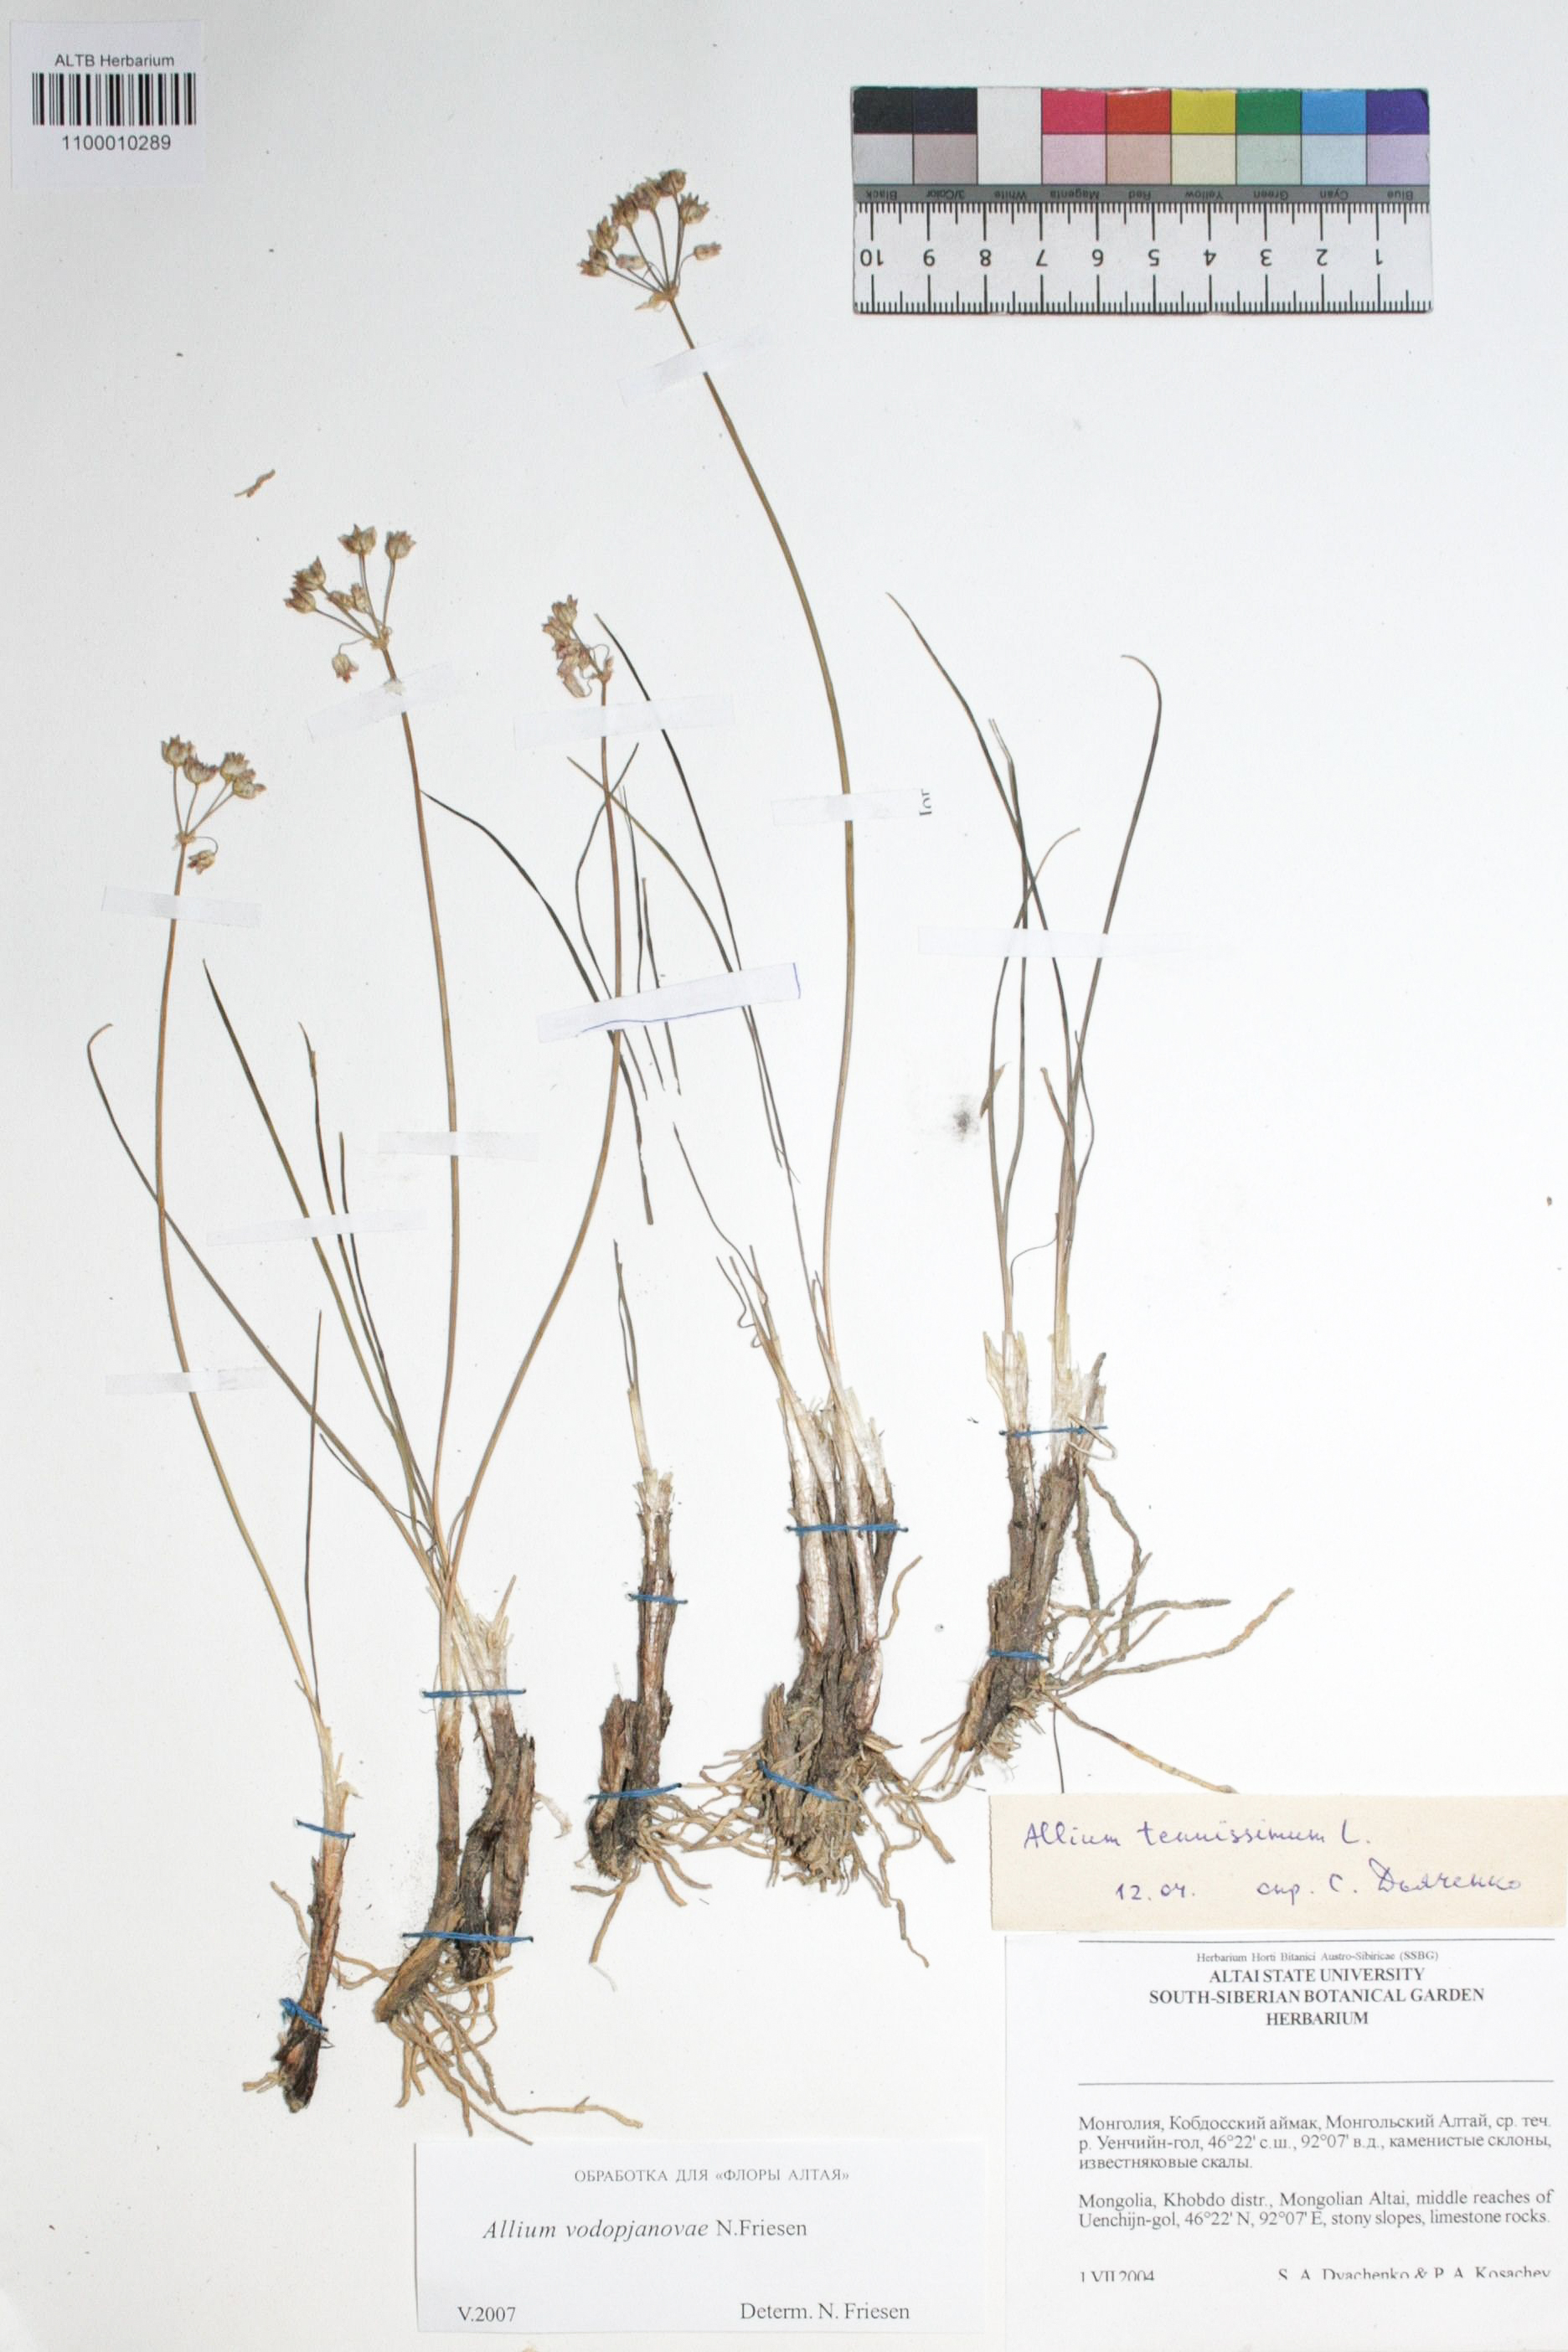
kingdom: Plantae
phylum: Tracheophyta
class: Liliopsida
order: Asparagales
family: Amaryllidaceae
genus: Allium
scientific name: Allium vodopjanovae
